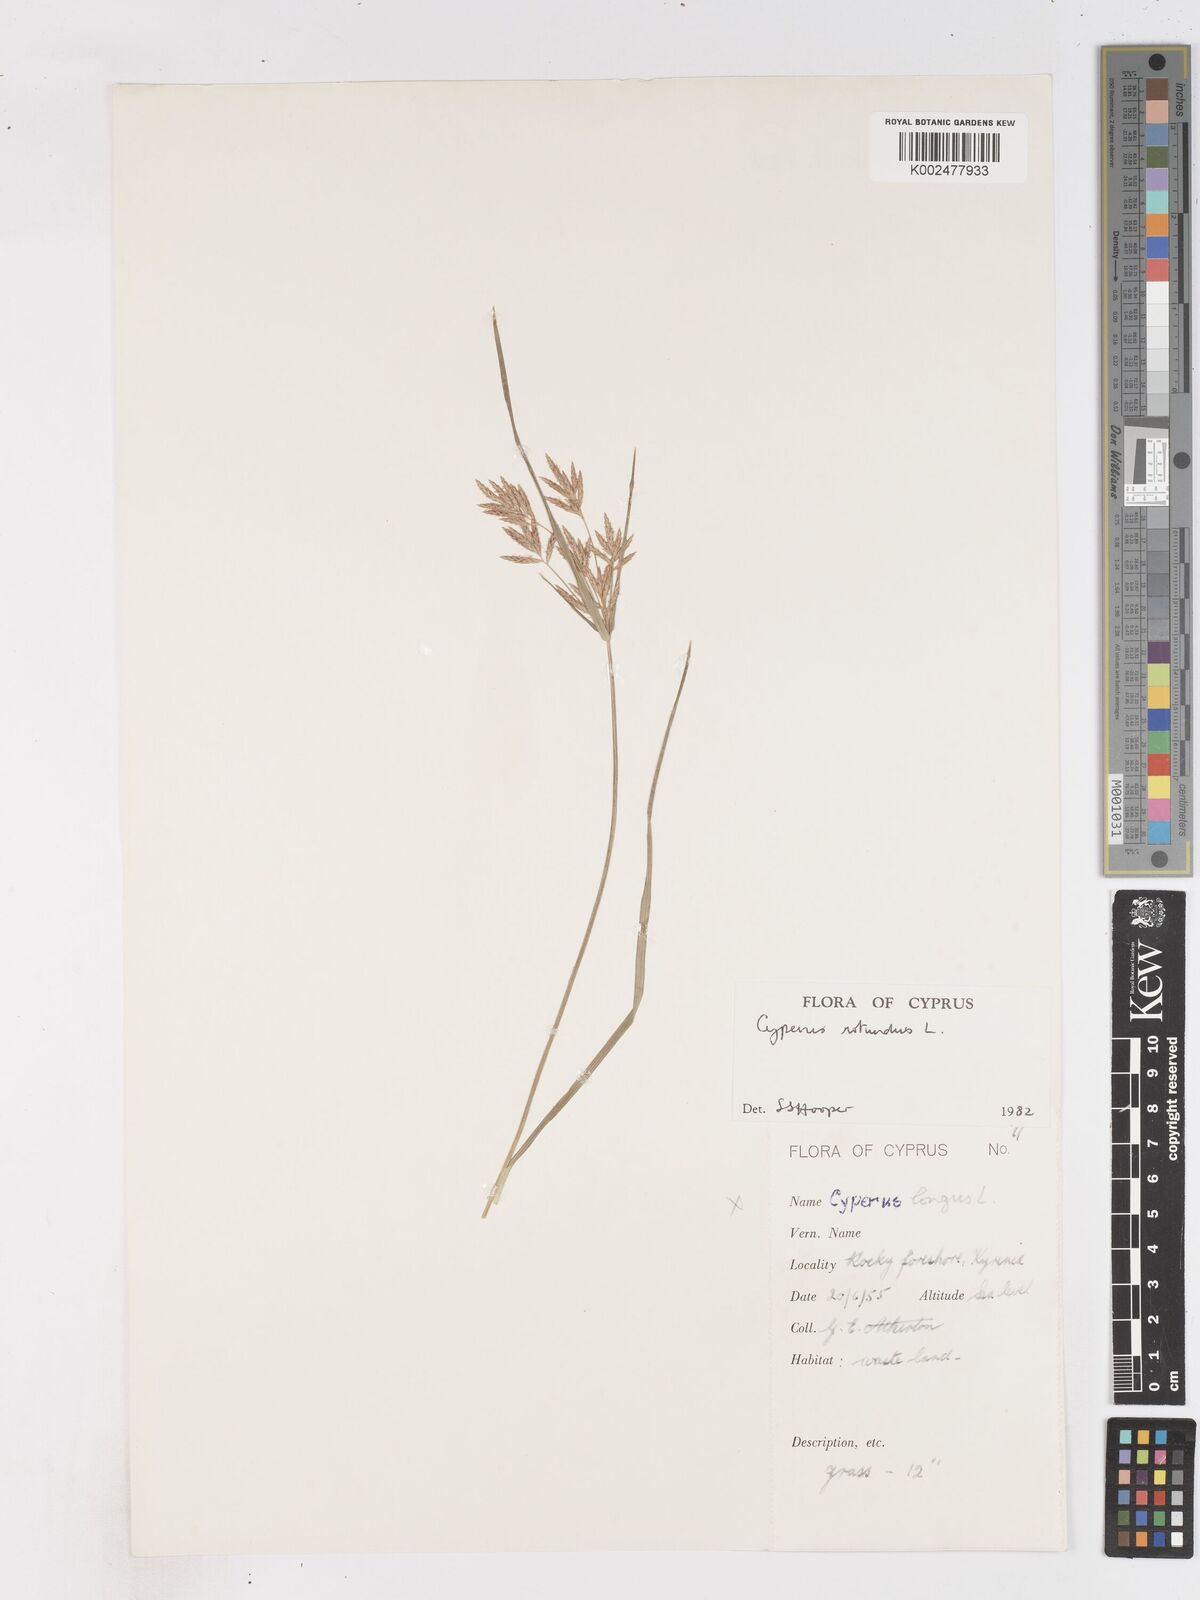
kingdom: Plantae
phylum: Tracheophyta
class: Liliopsida
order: Poales
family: Cyperaceae
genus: Cyperus
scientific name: Cyperus rotundus
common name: Nutgrass
